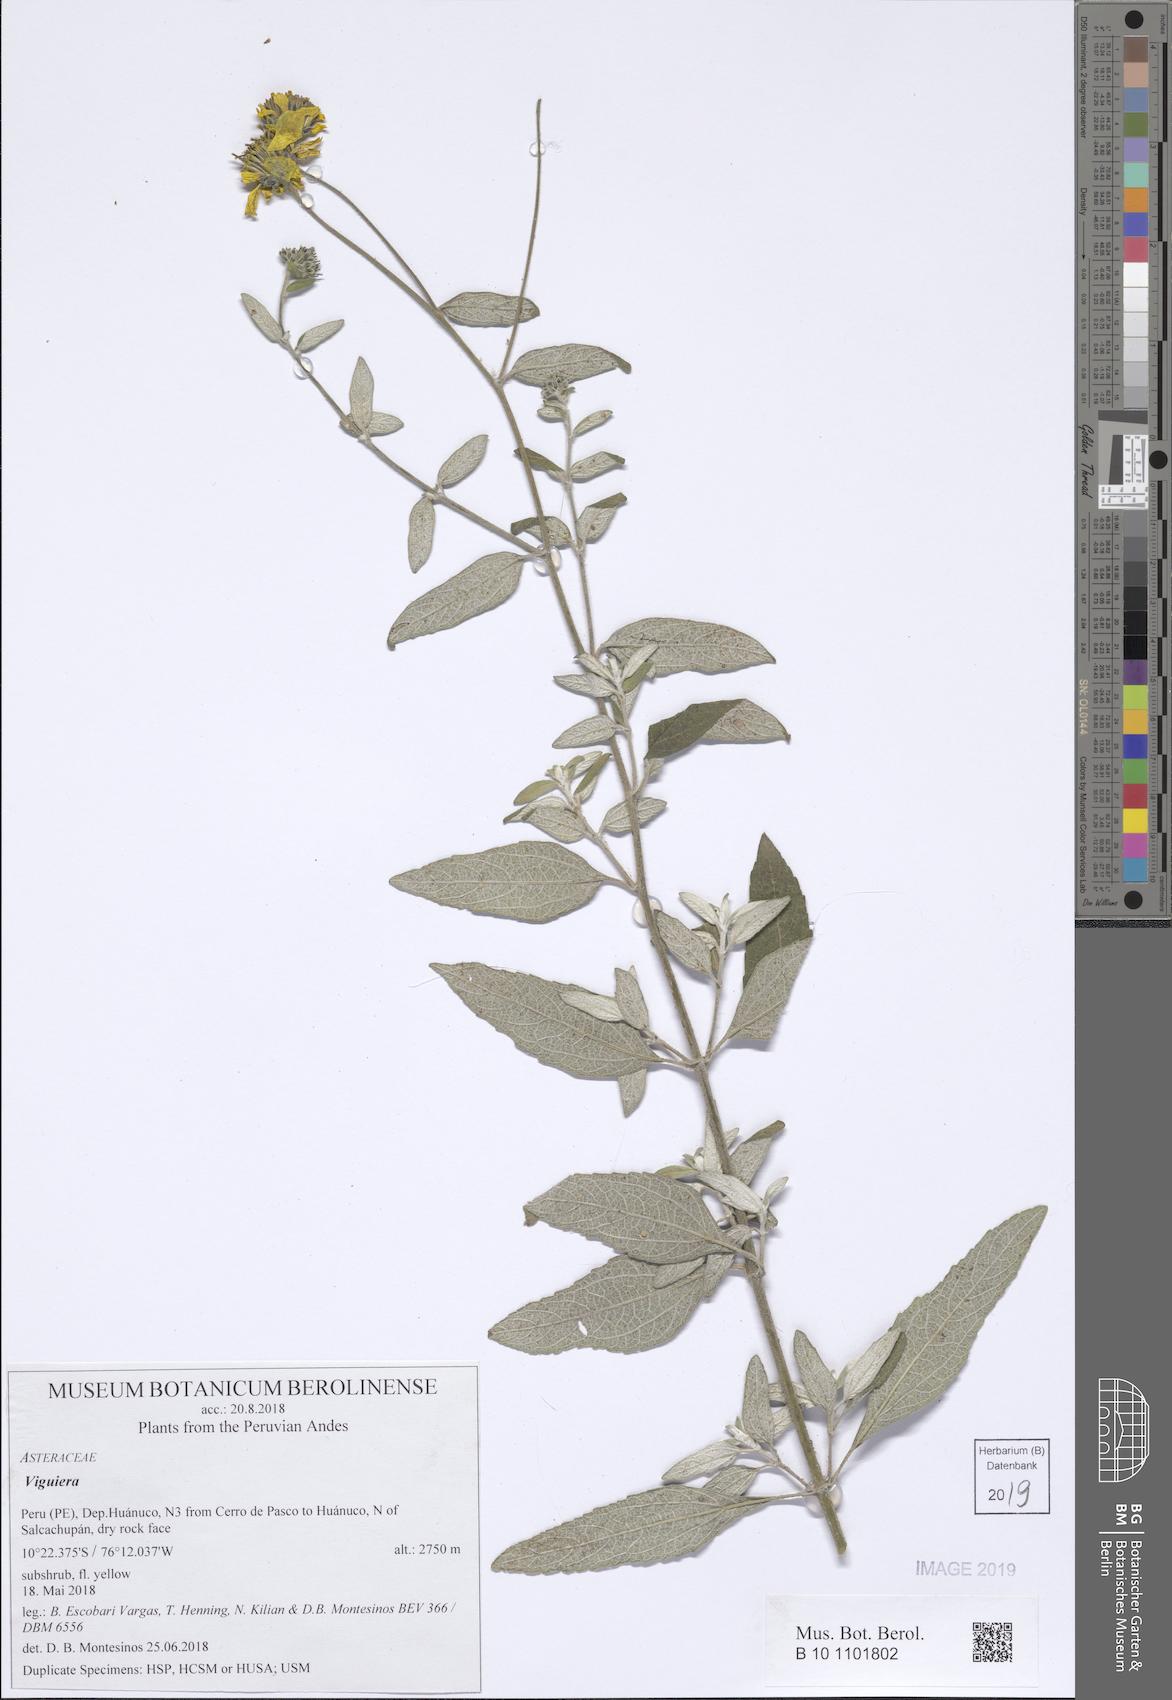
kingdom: Plantae
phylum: Tracheophyta
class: Magnoliopsida
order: Asterales
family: Asteraceae
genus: Viguiera
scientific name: Viguiera
